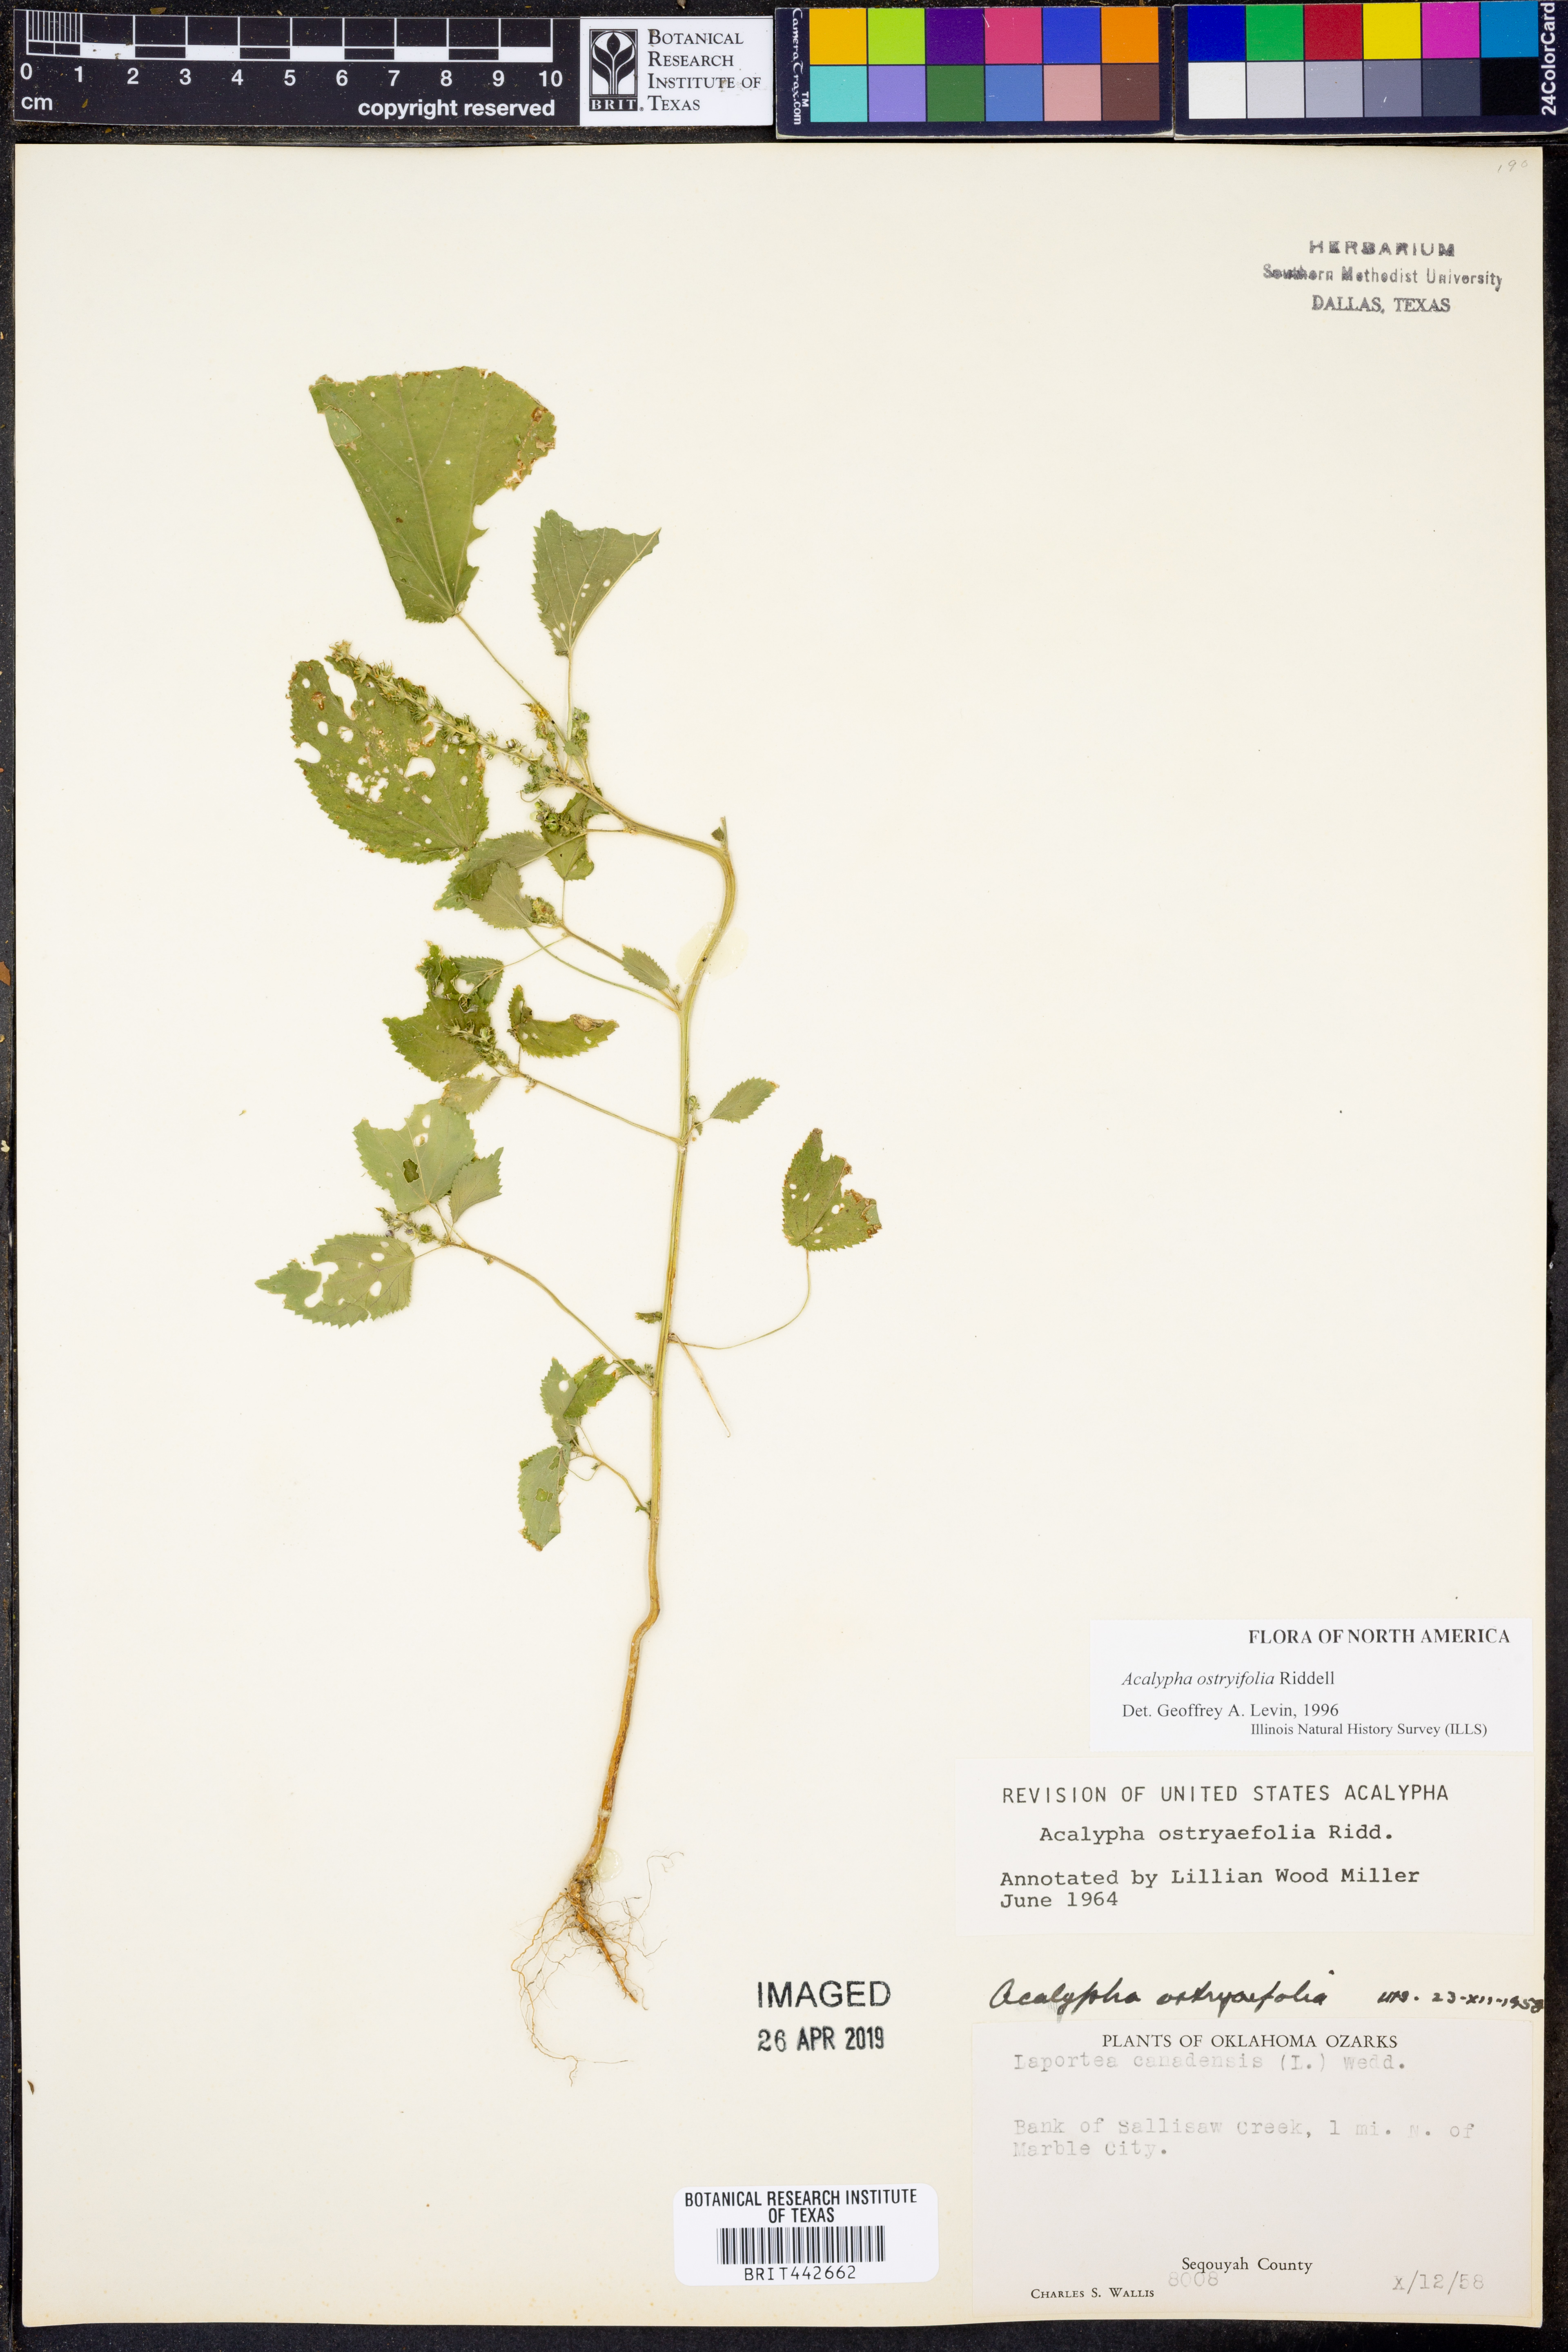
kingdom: Plantae
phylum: Tracheophyta
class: Magnoliopsida
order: Malpighiales
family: Euphorbiaceae
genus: Acalypha
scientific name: Acalypha persimilis
